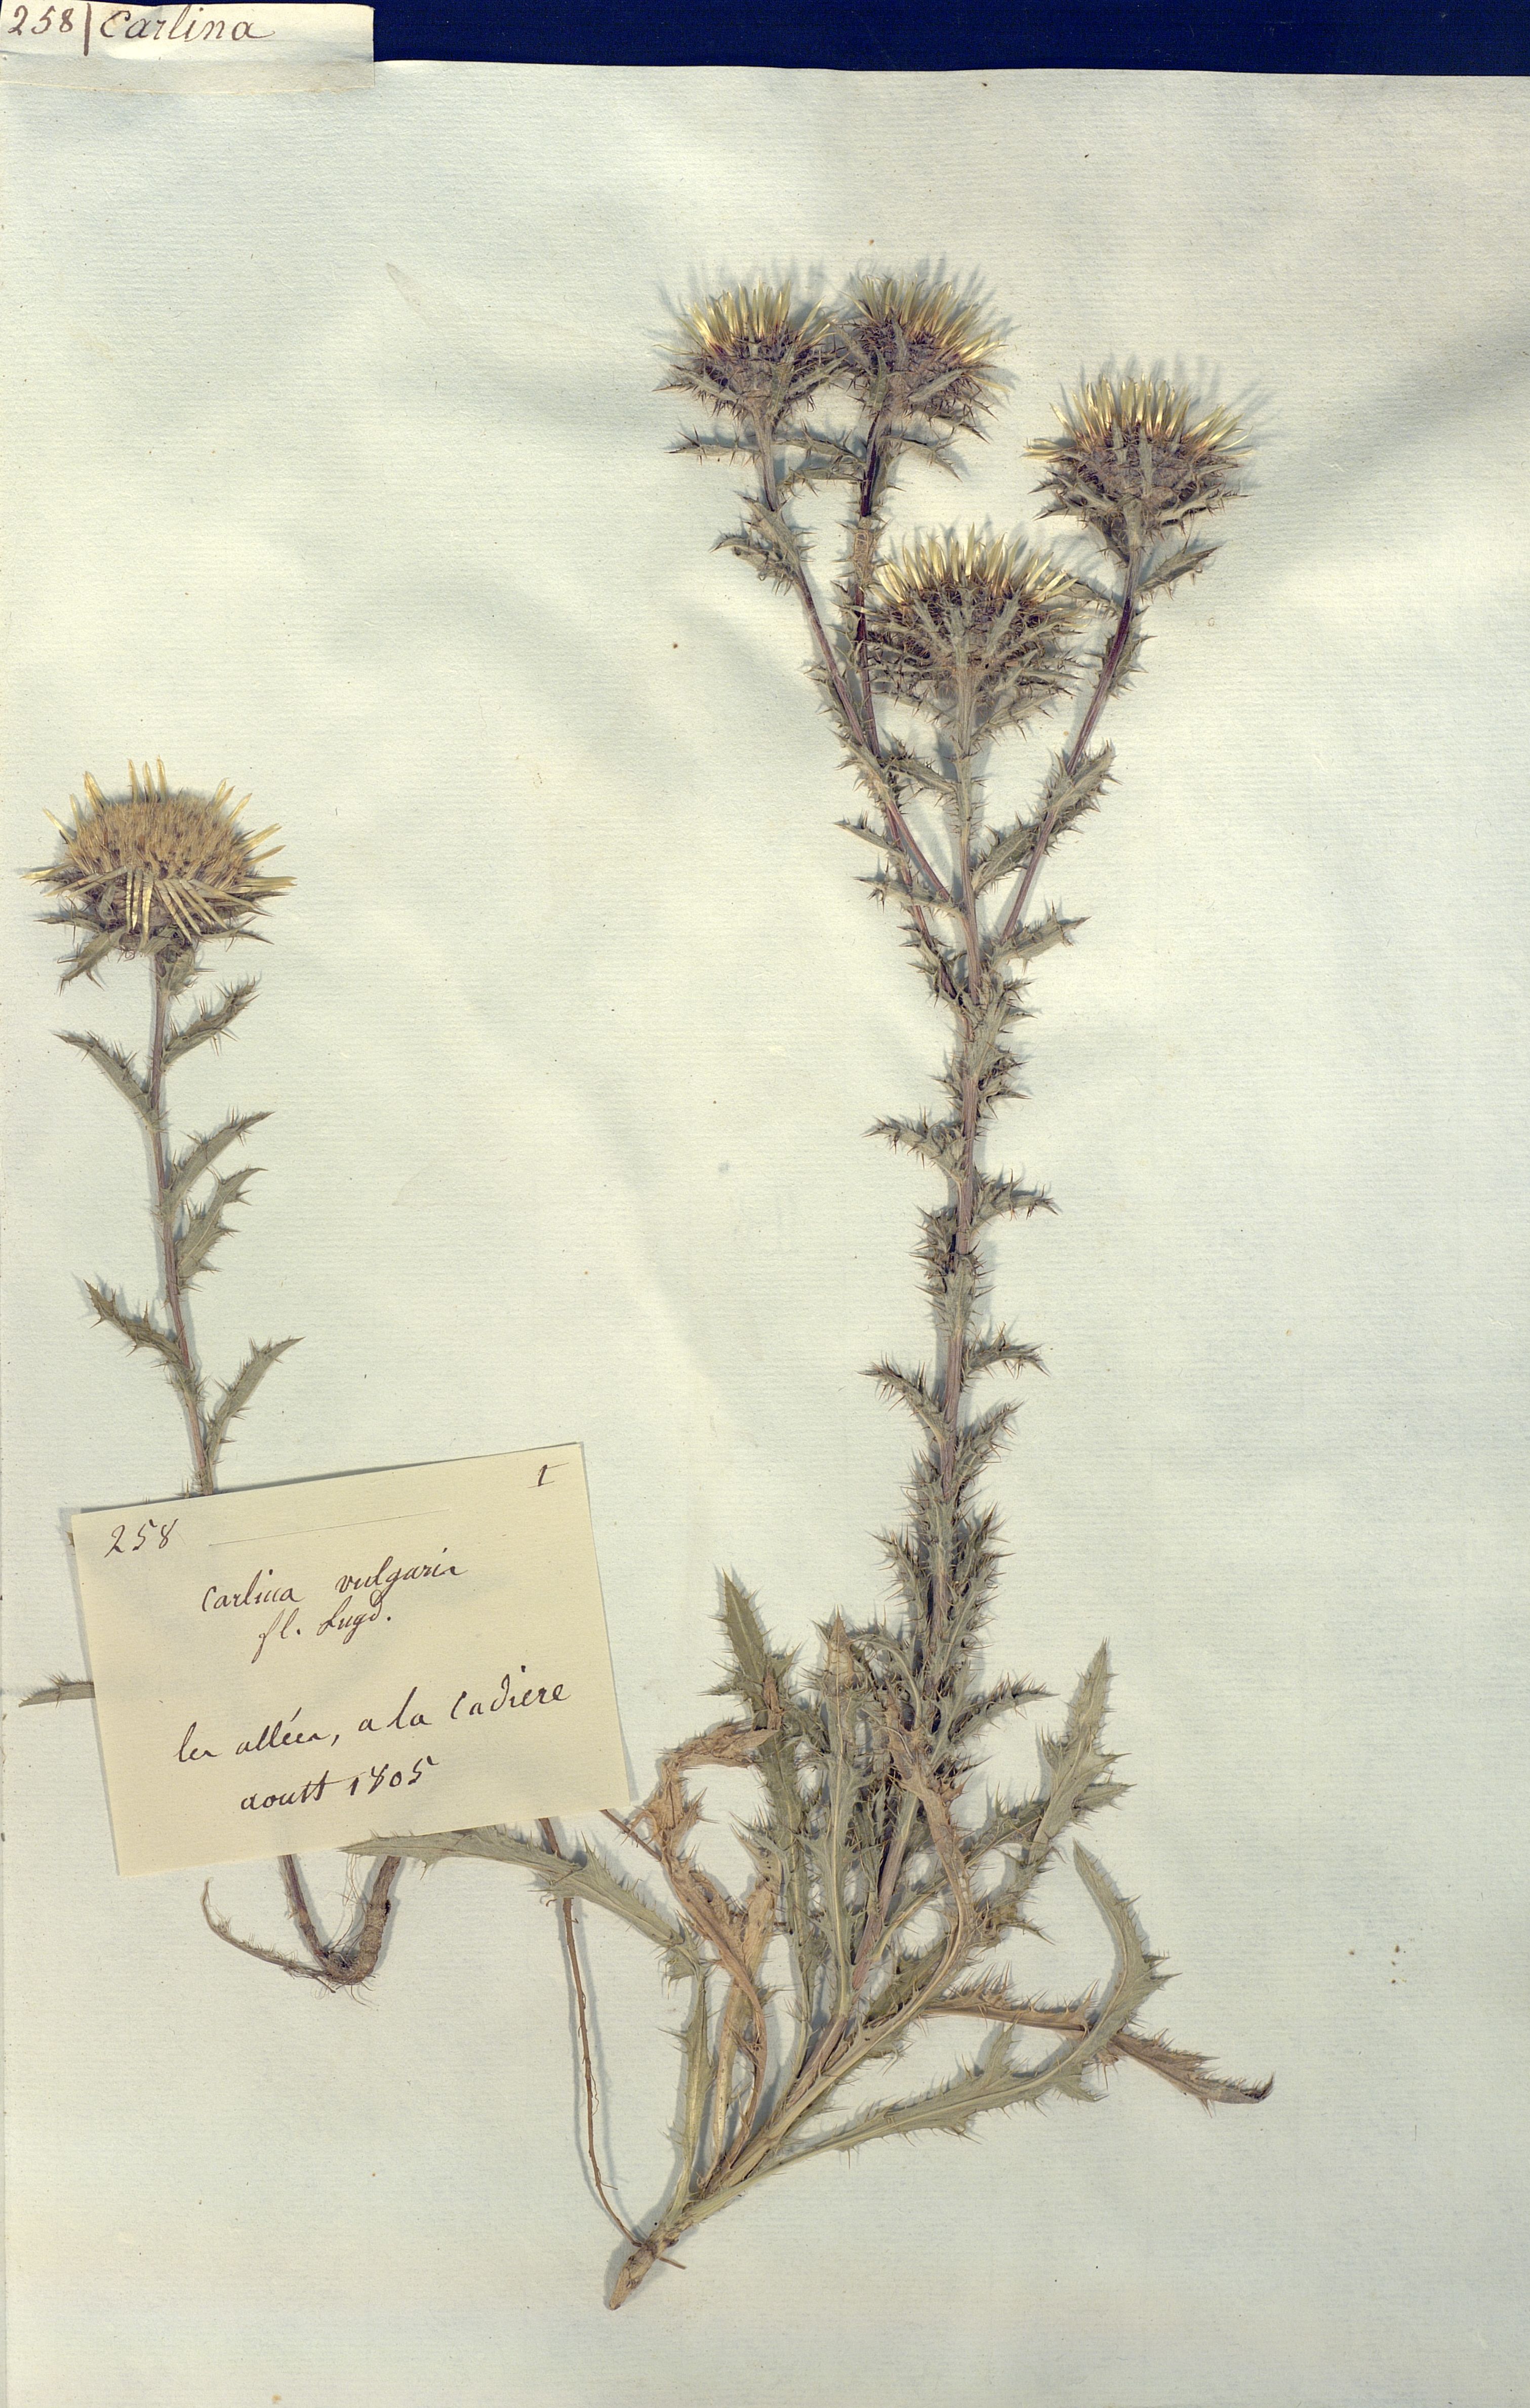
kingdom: Plantae
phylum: Tracheophyta
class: Magnoliopsida
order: Asterales
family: Asteraceae
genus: Carlina
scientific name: Carlina vulgaris
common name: Carline thistle
